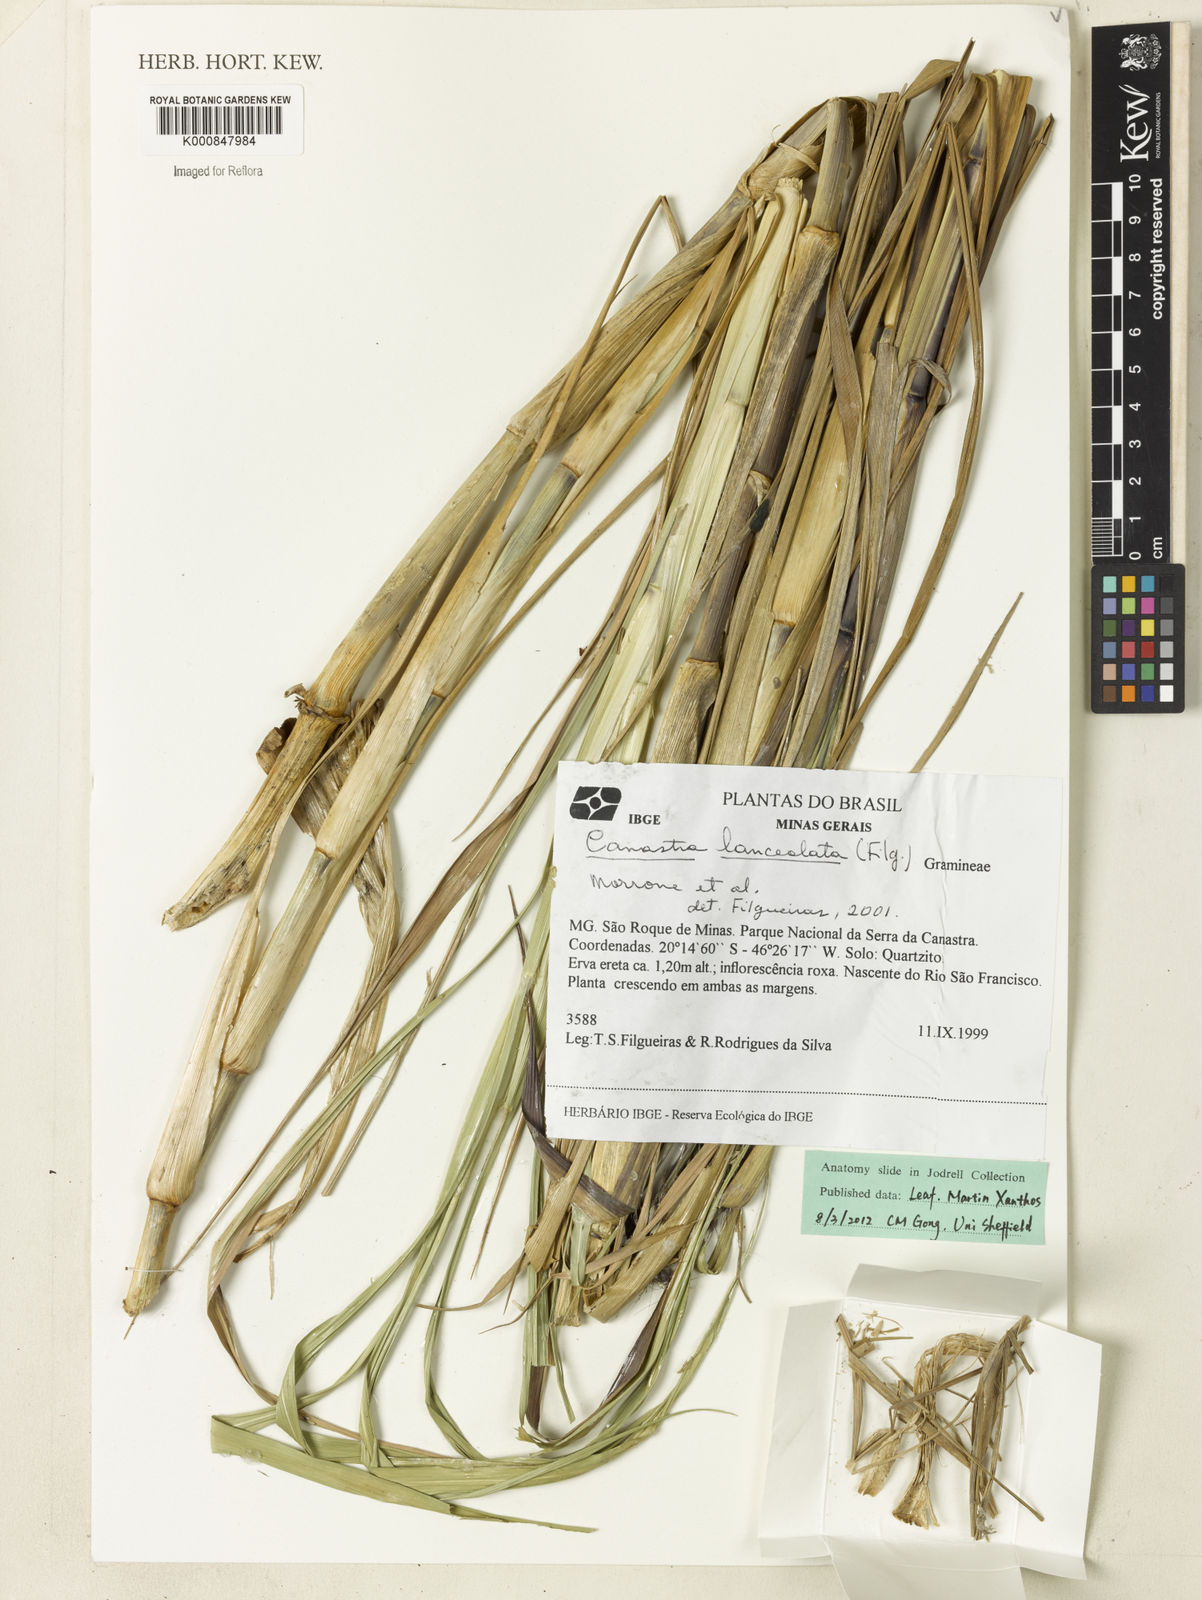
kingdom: Plantae
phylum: Tracheophyta
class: Liliopsida
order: Poales
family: Poaceae
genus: Canastra
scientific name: Canastra lanceolata
